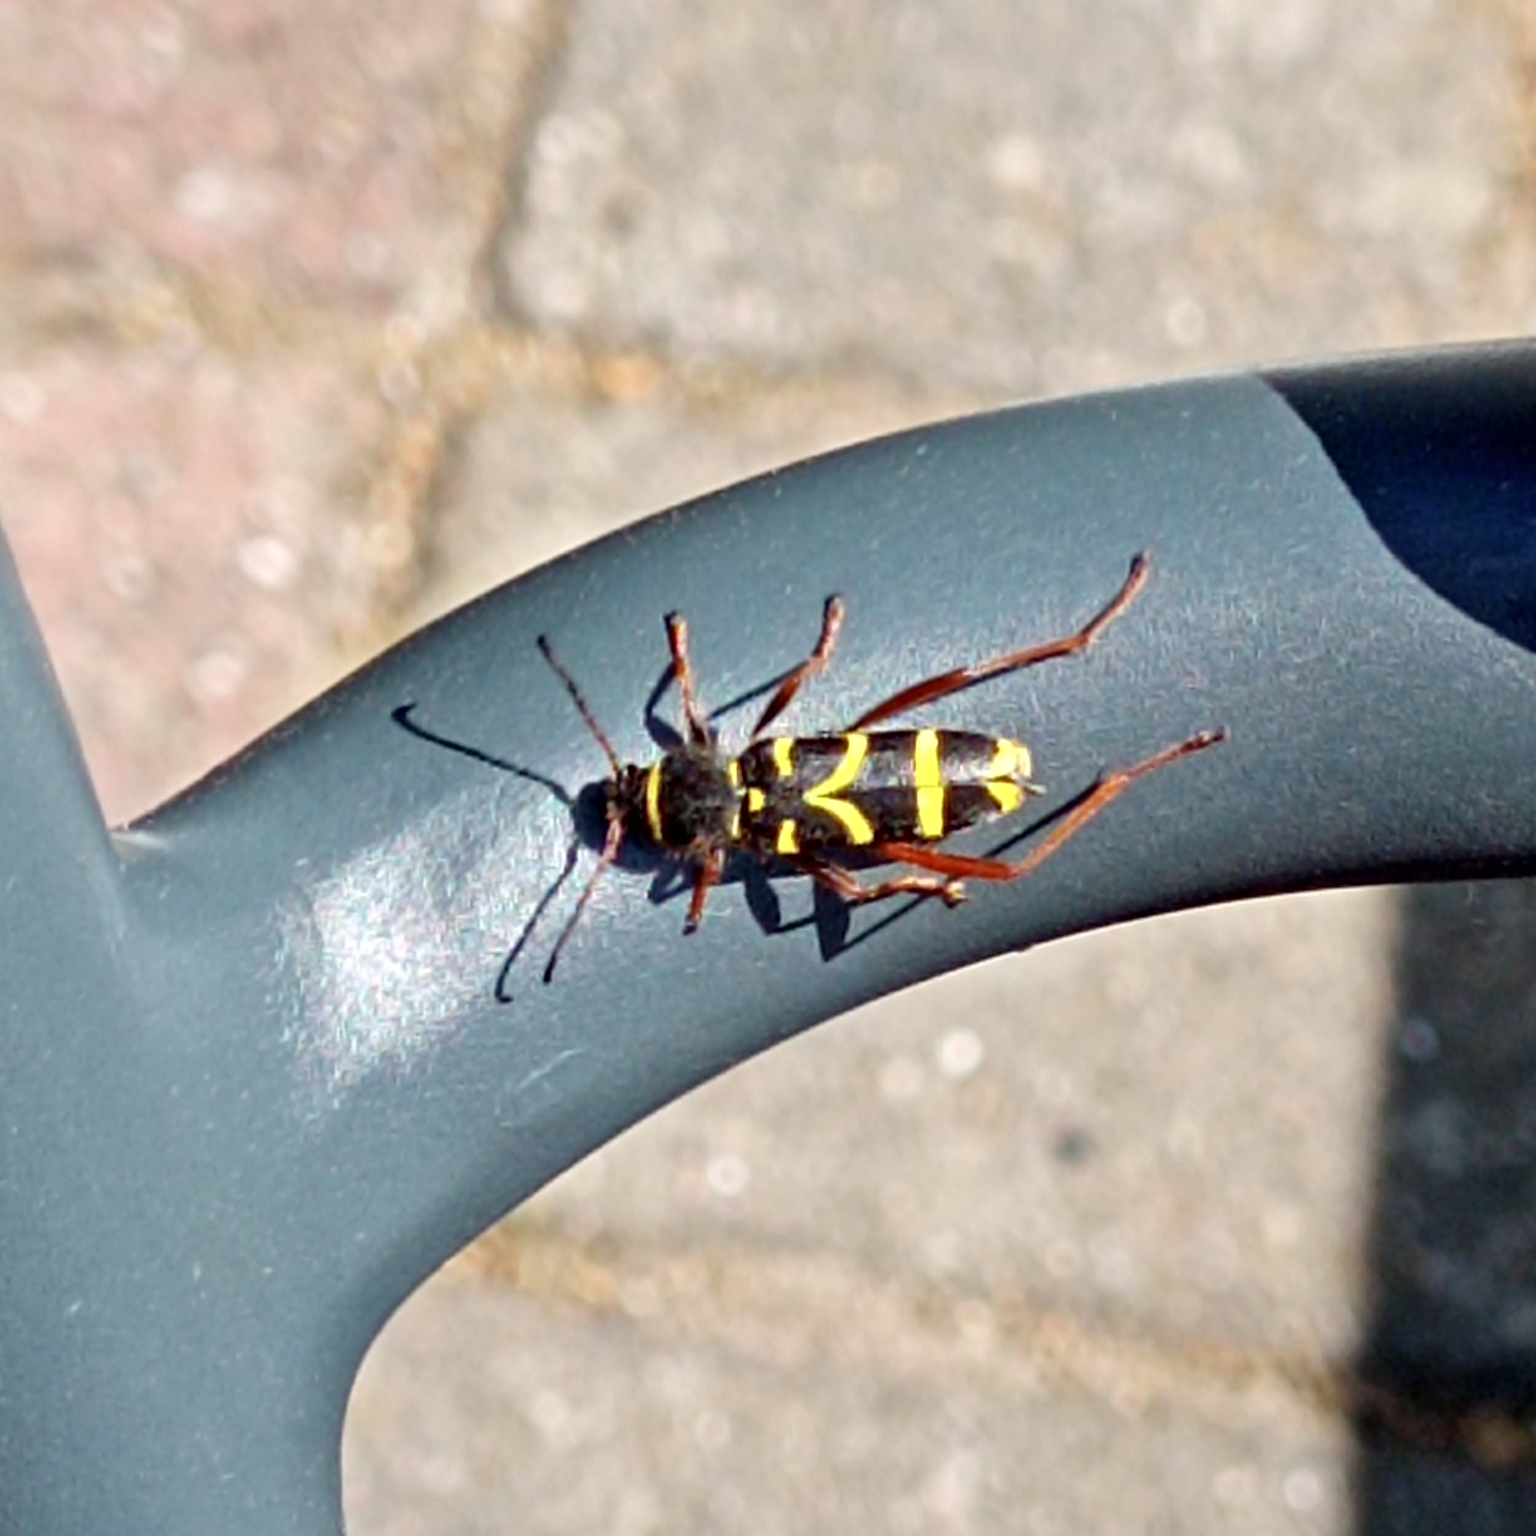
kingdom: Animalia
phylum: Arthropoda
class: Insecta
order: Coleoptera
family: Cerambycidae
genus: Clytus
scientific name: Clytus arietis
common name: Lille hvepsebuk
